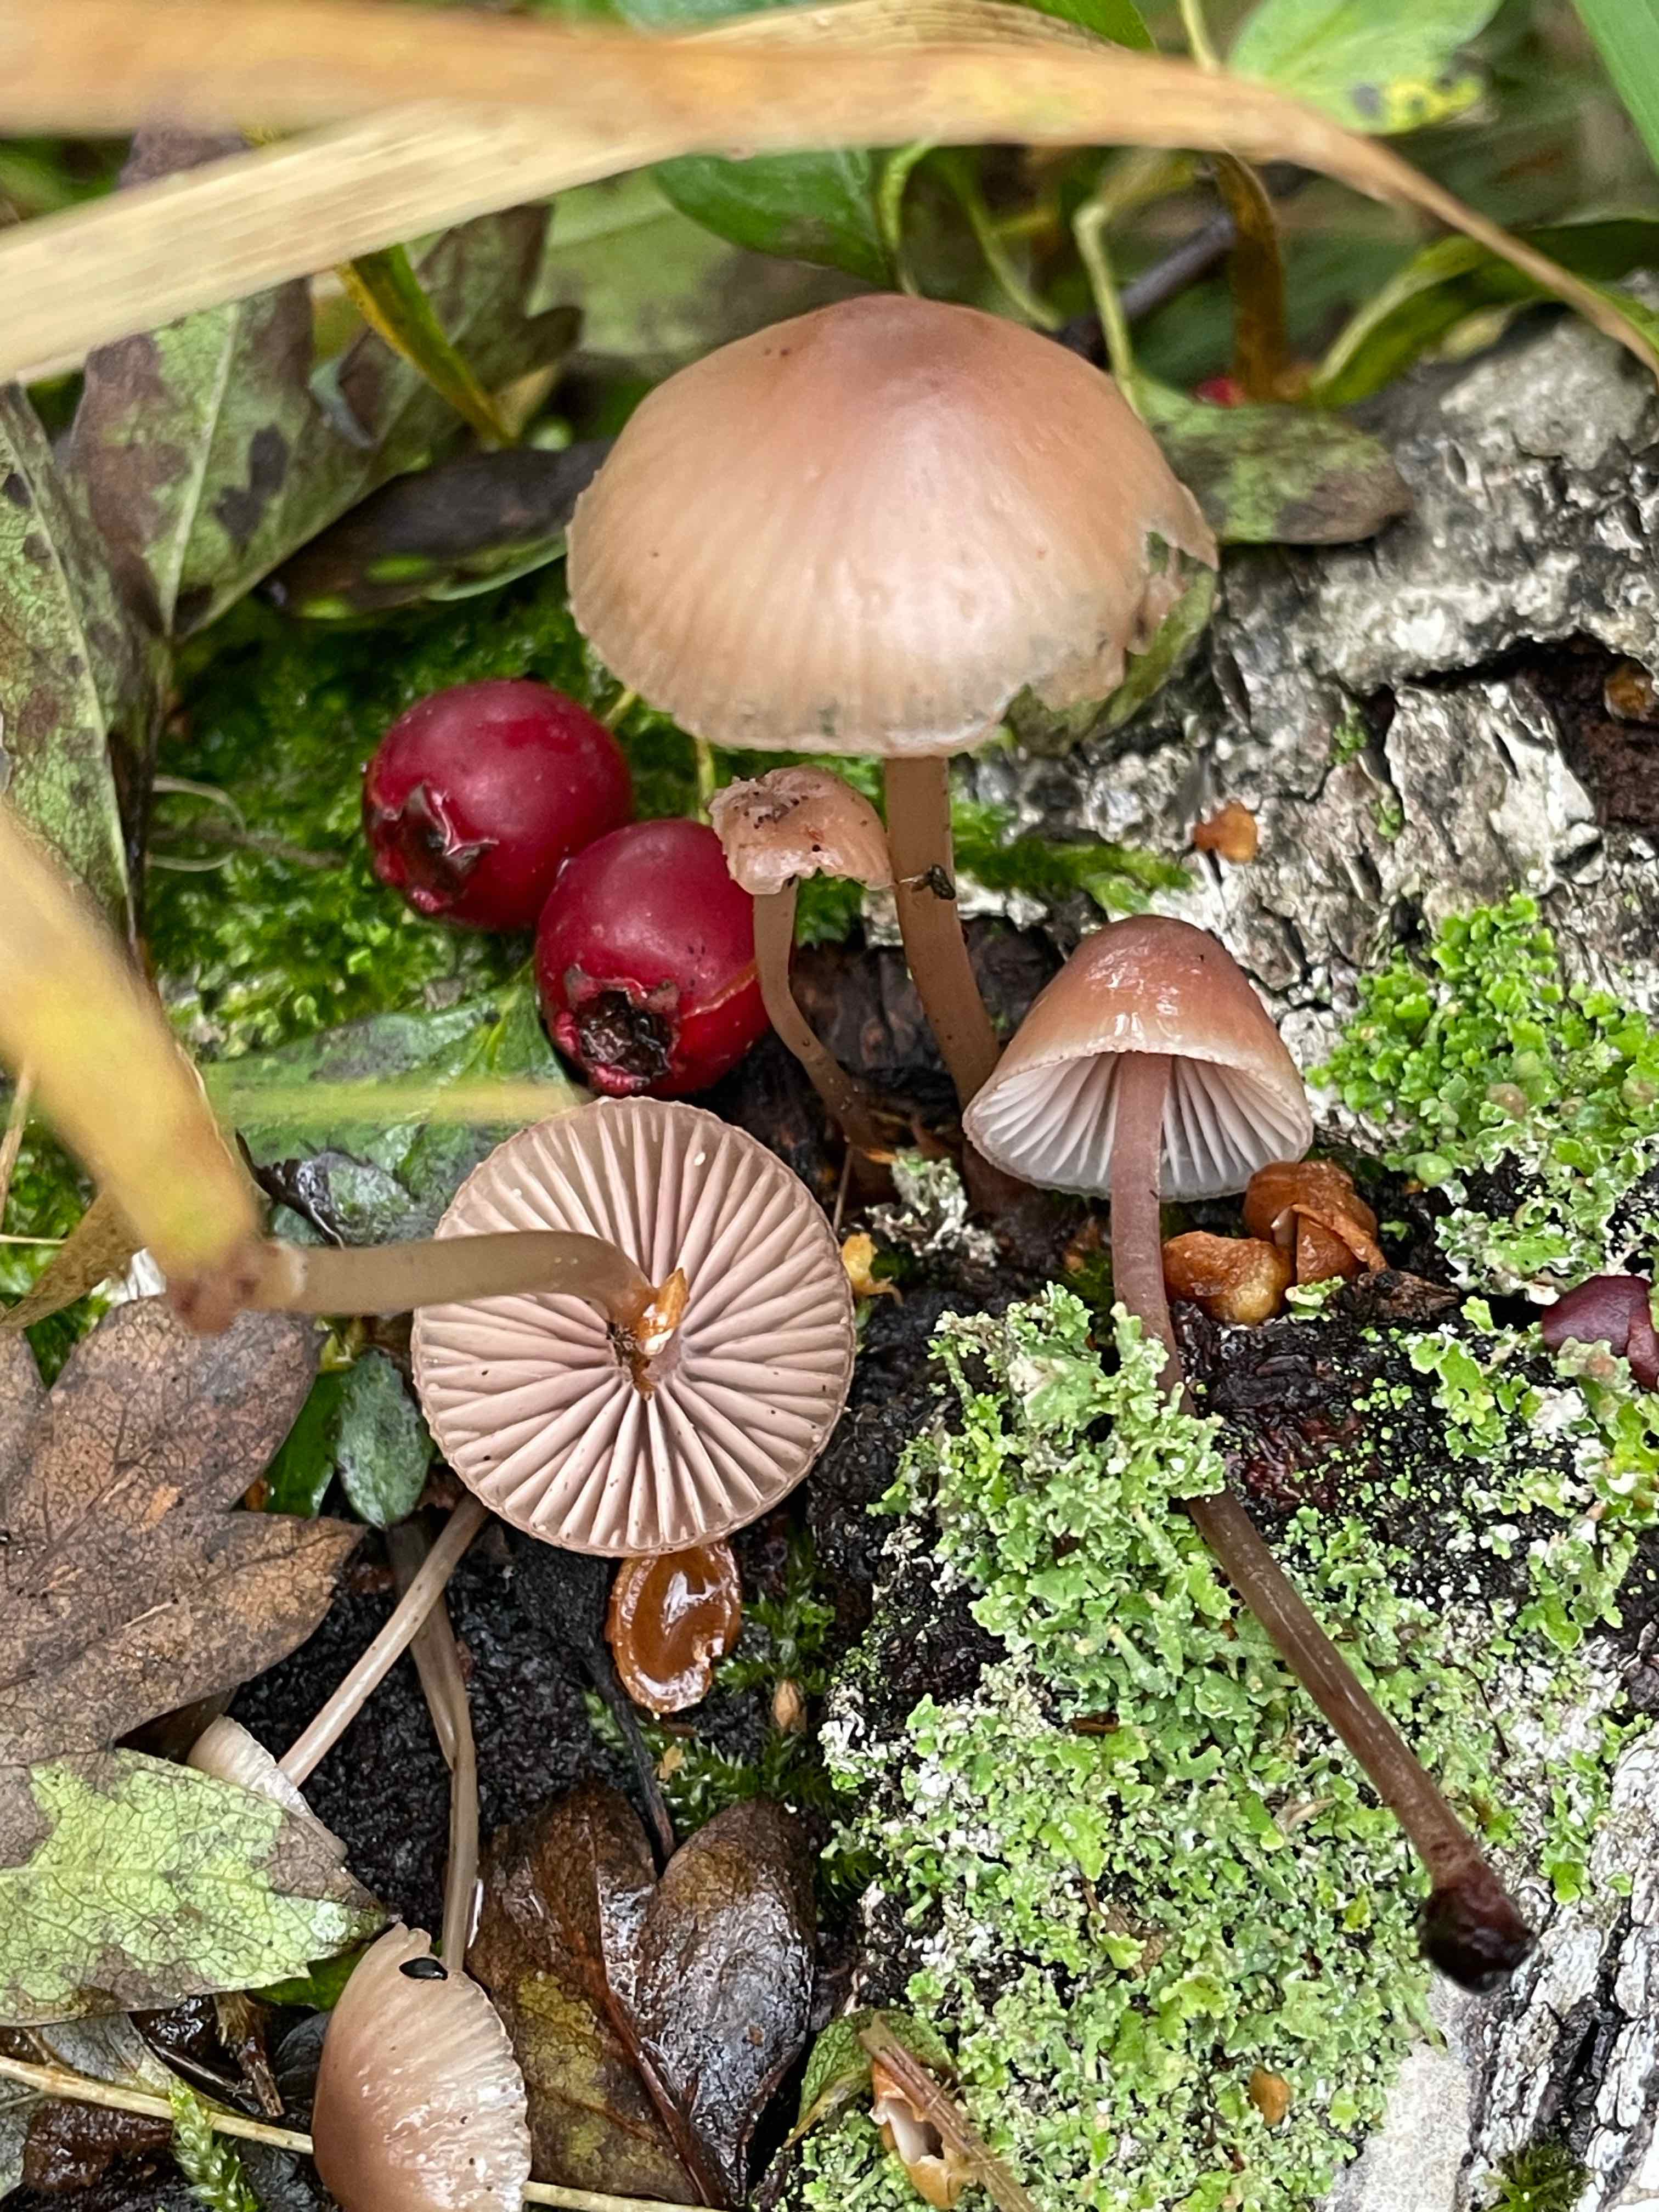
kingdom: Fungi
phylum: Basidiomycota
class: Agaricomycetes
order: Agaricales
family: Mycenaceae
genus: Mycena
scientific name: Mycena haematopus
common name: blødende huesvamp
